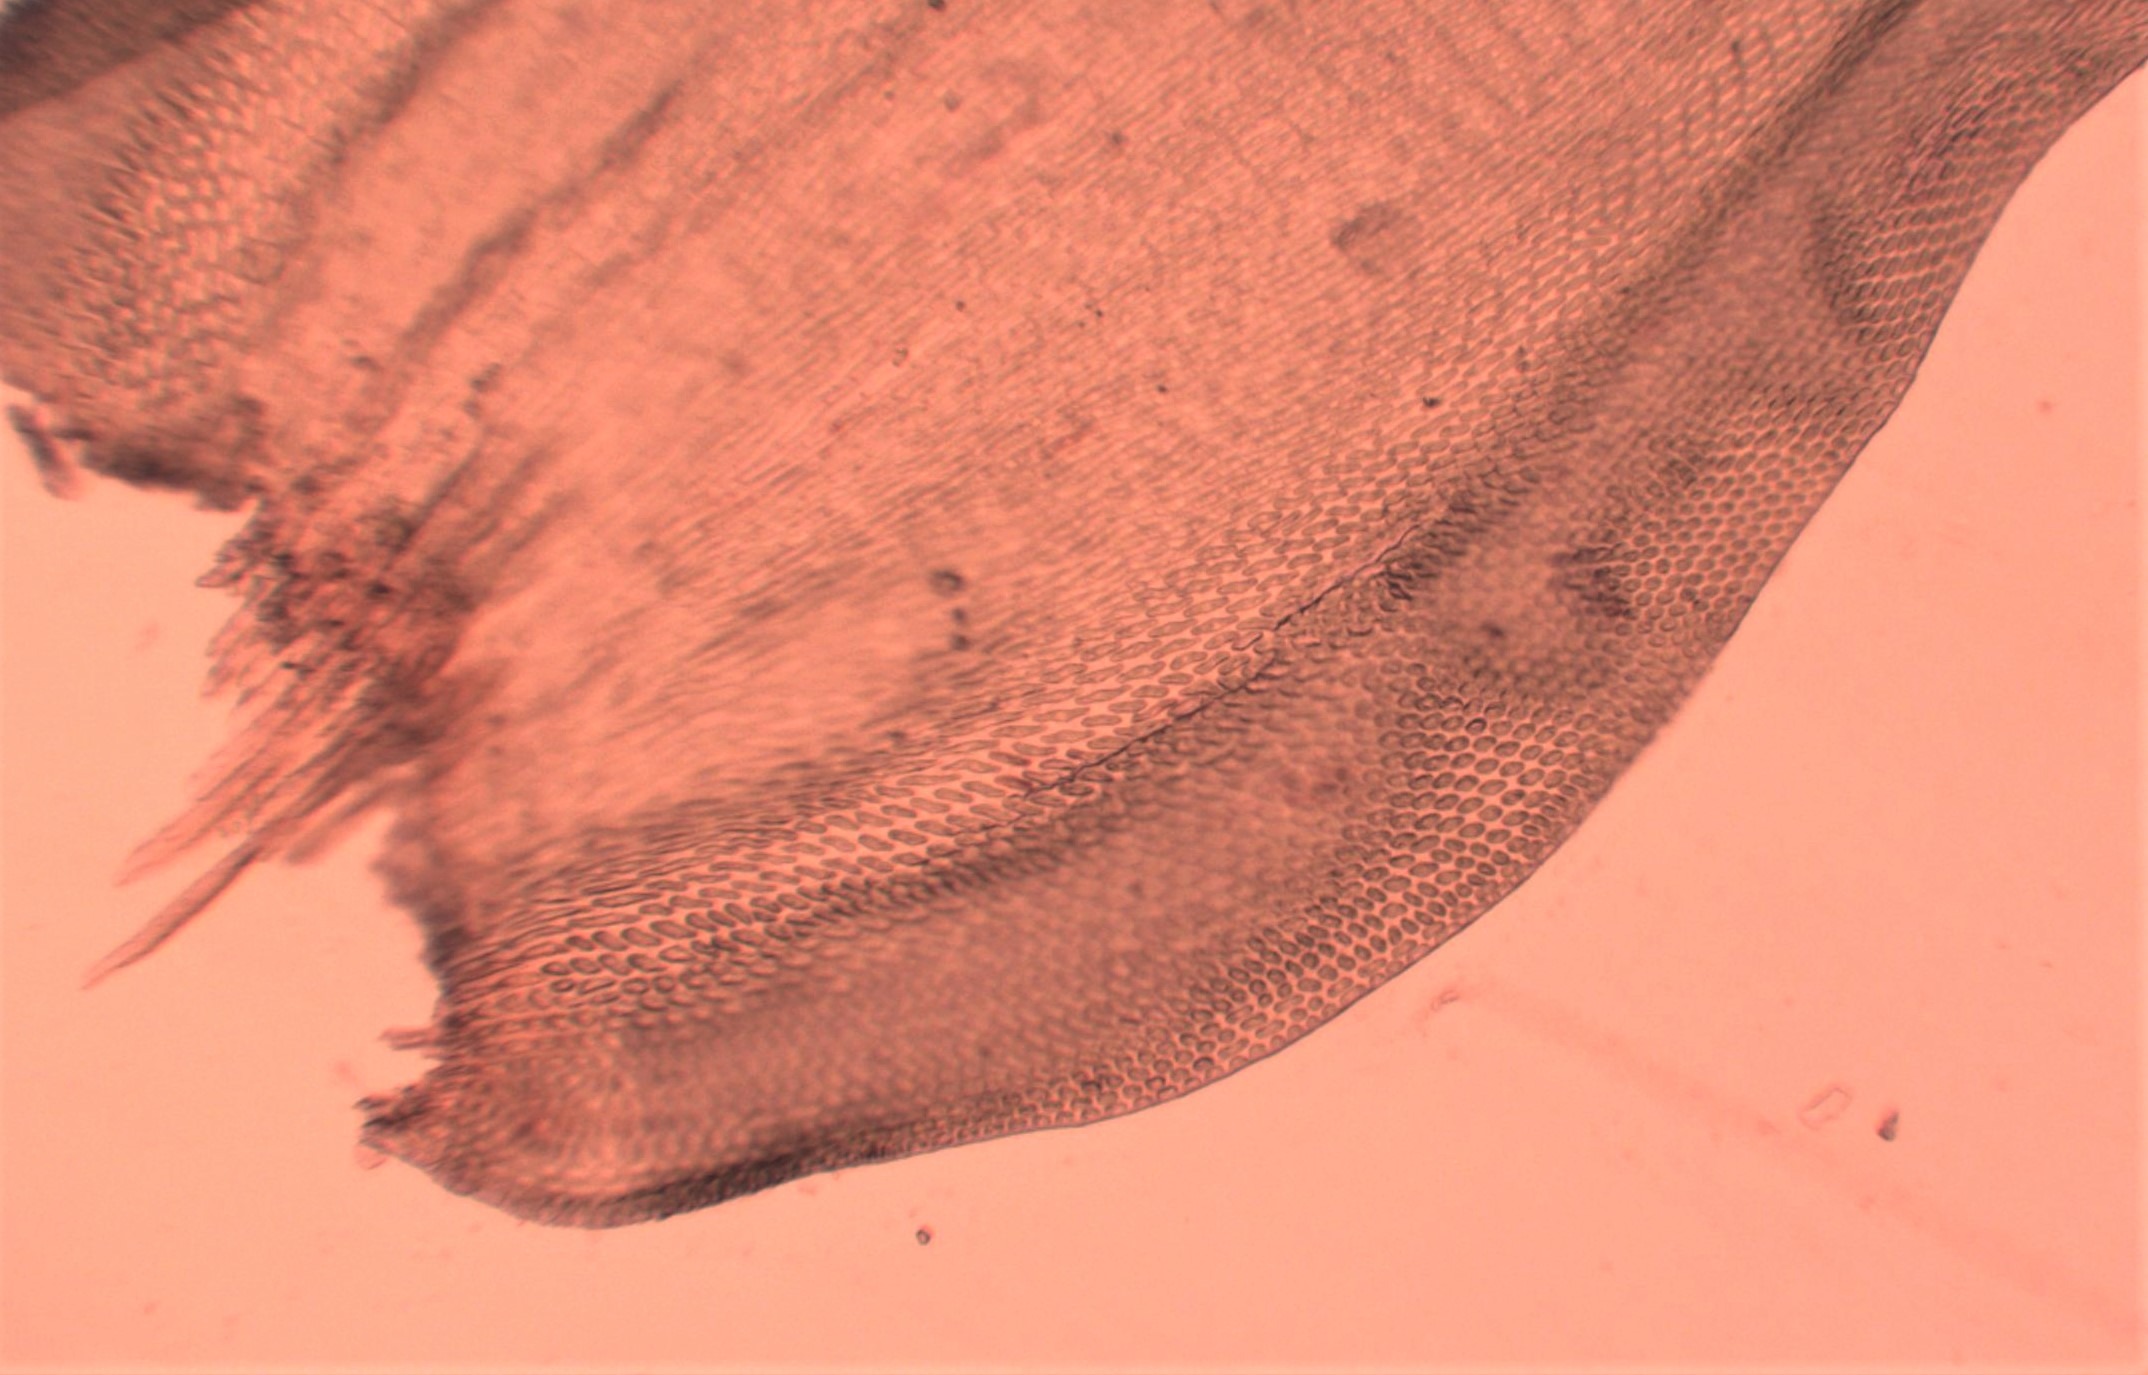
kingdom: Plantae
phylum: Bryophyta
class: Bryopsida
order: Hypnales
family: Leucodontaceae
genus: Leucodon
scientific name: Leucodon sciuroides
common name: Egernhale-buemos
